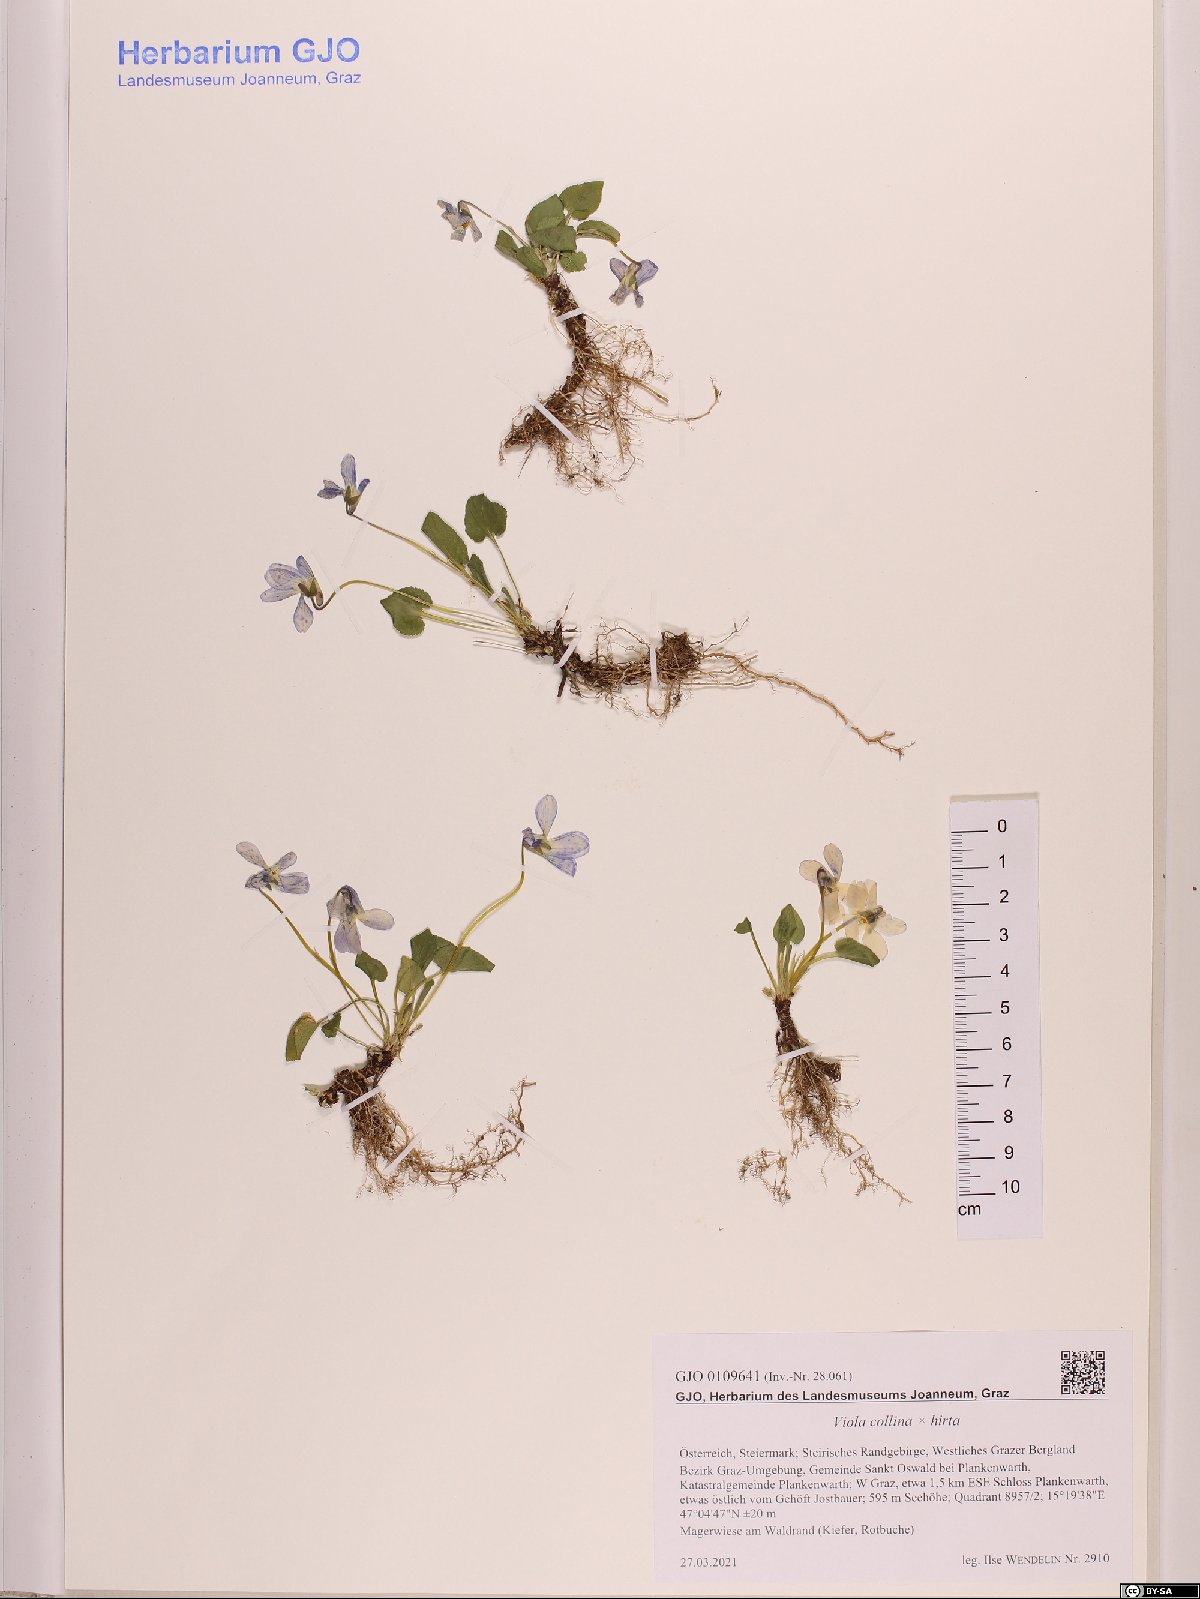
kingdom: Plantae
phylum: Tracheophyta
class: Magnoliopsida
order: Malpighiales
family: Violaceae
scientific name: Violaceae
